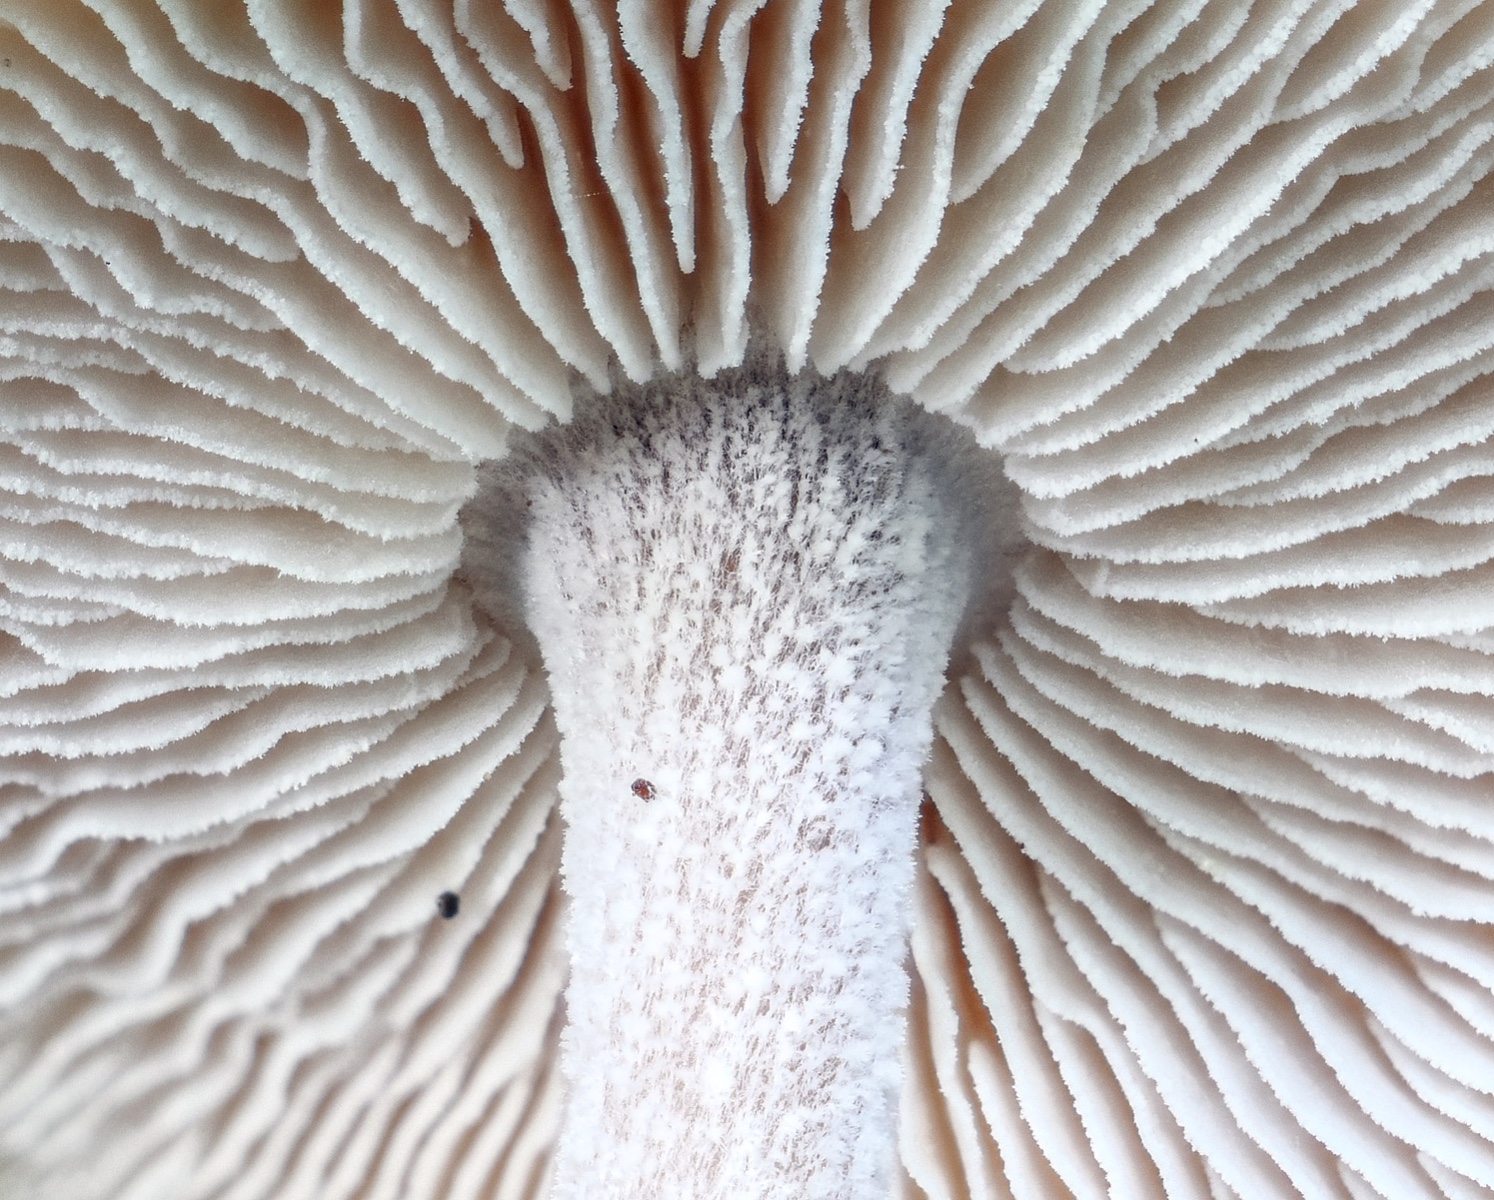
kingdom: Fungi
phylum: Basidiomycota
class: Agaricomycetes
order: Agaricales
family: Omphalotaceae
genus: Collybiopsis
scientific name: Collybiopsis confluens
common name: knippe-fladhat
